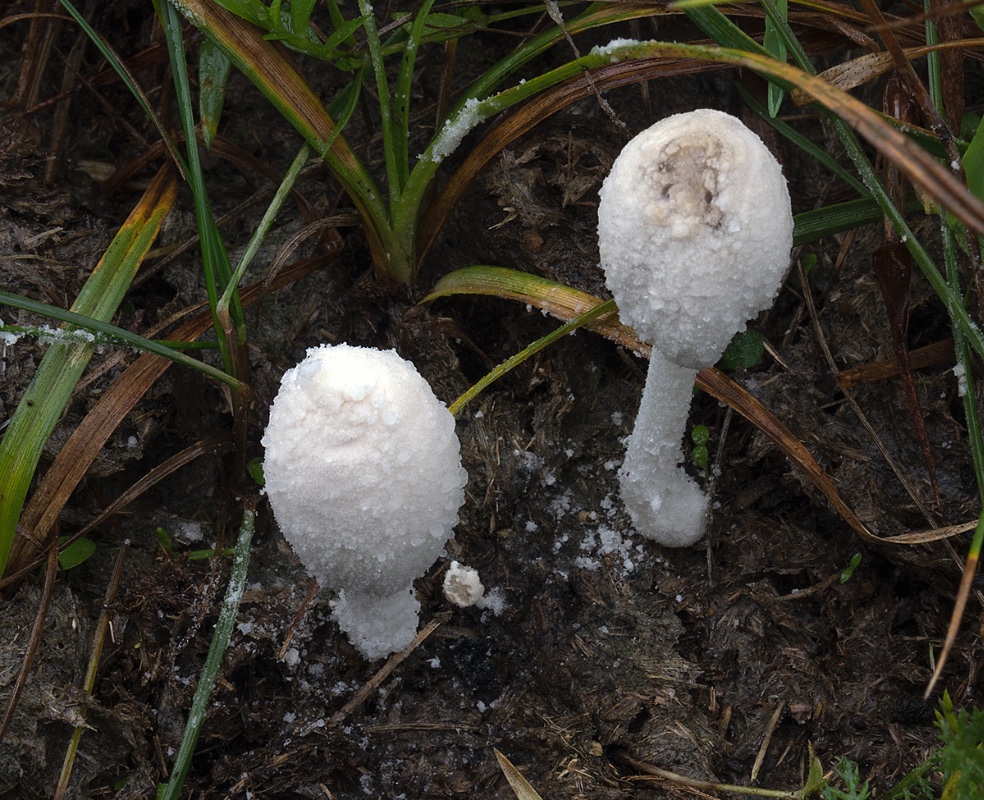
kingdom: Fungi
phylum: Basidiomycota
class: Agaricomycetes
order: Agaricales
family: Psathyrellaceae
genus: Coprinopsis
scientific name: Coprinopsis nivea
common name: snehvid blækhat
